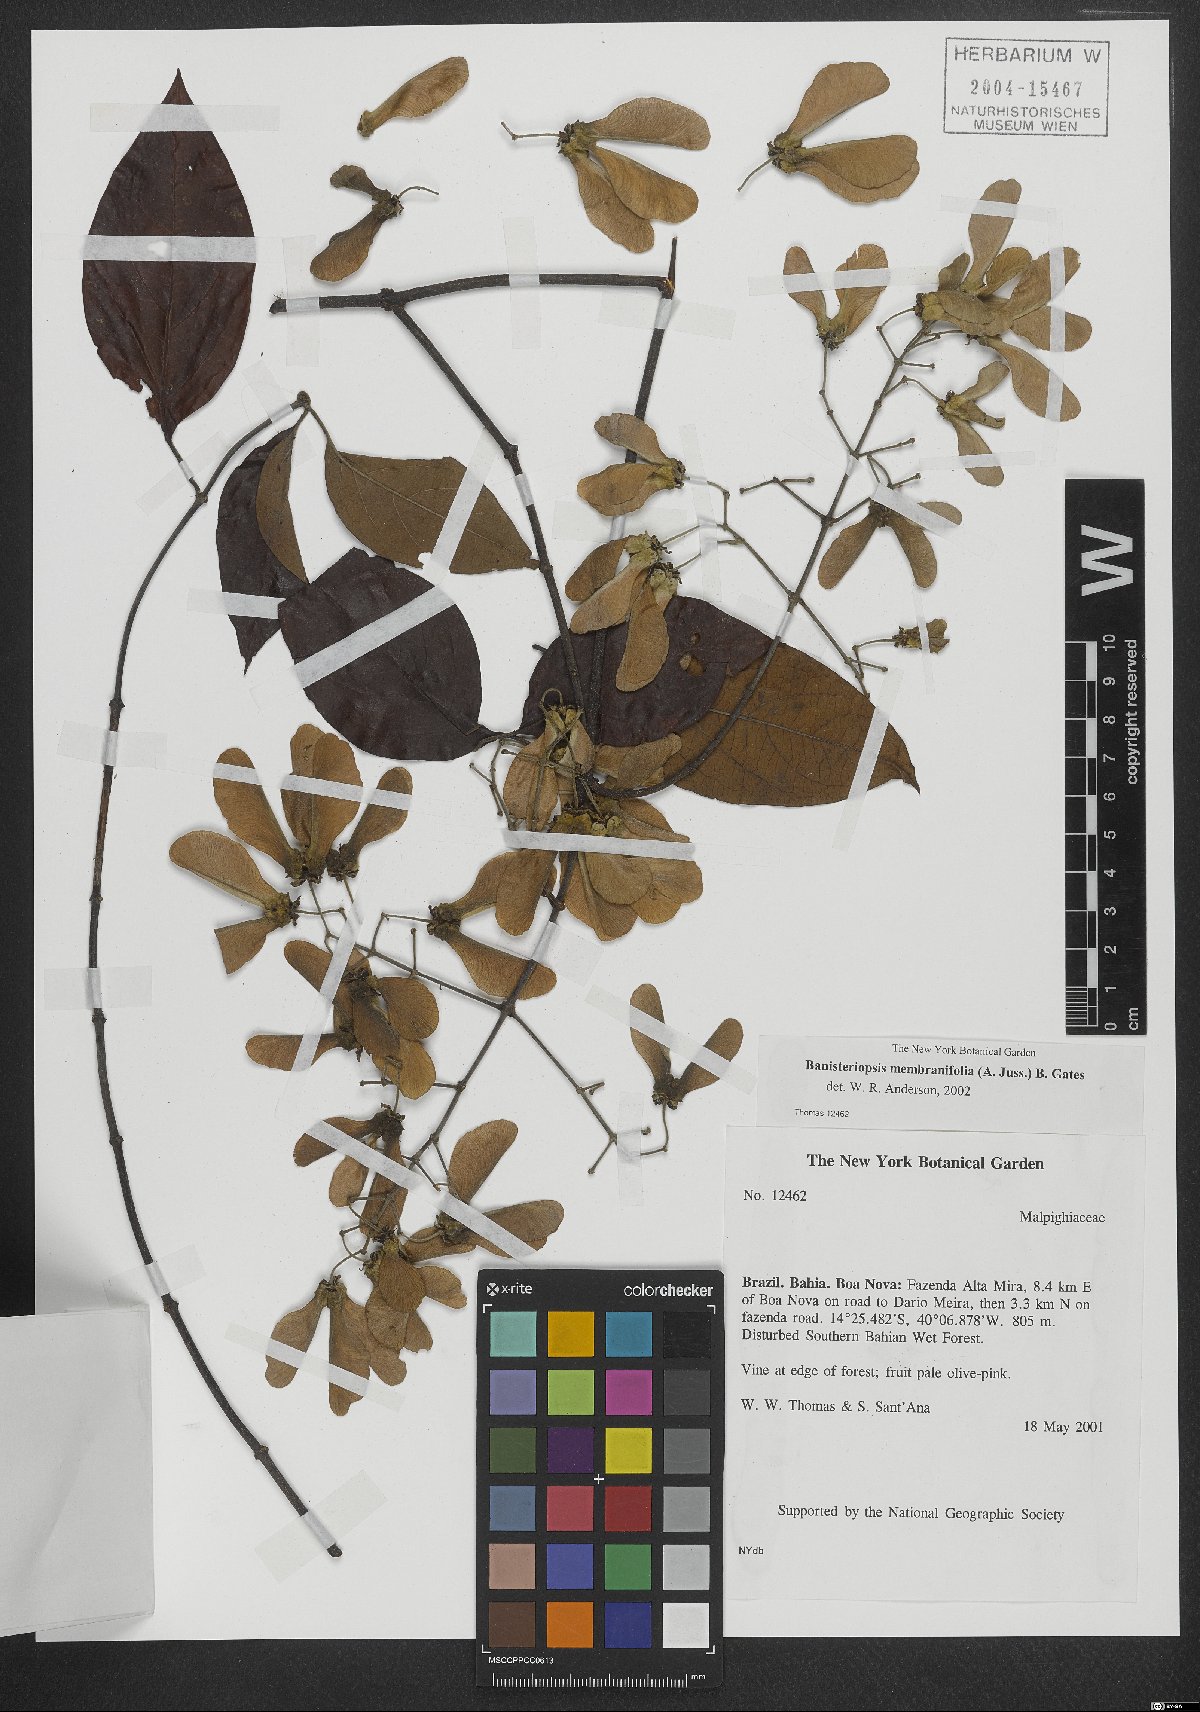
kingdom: Plantae
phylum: Tracheophyta
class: Magnoliopsida
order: Malpighiales
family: Malpighiaceae
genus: Banisteriopsis
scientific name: Banisteriopsis membranifolia
